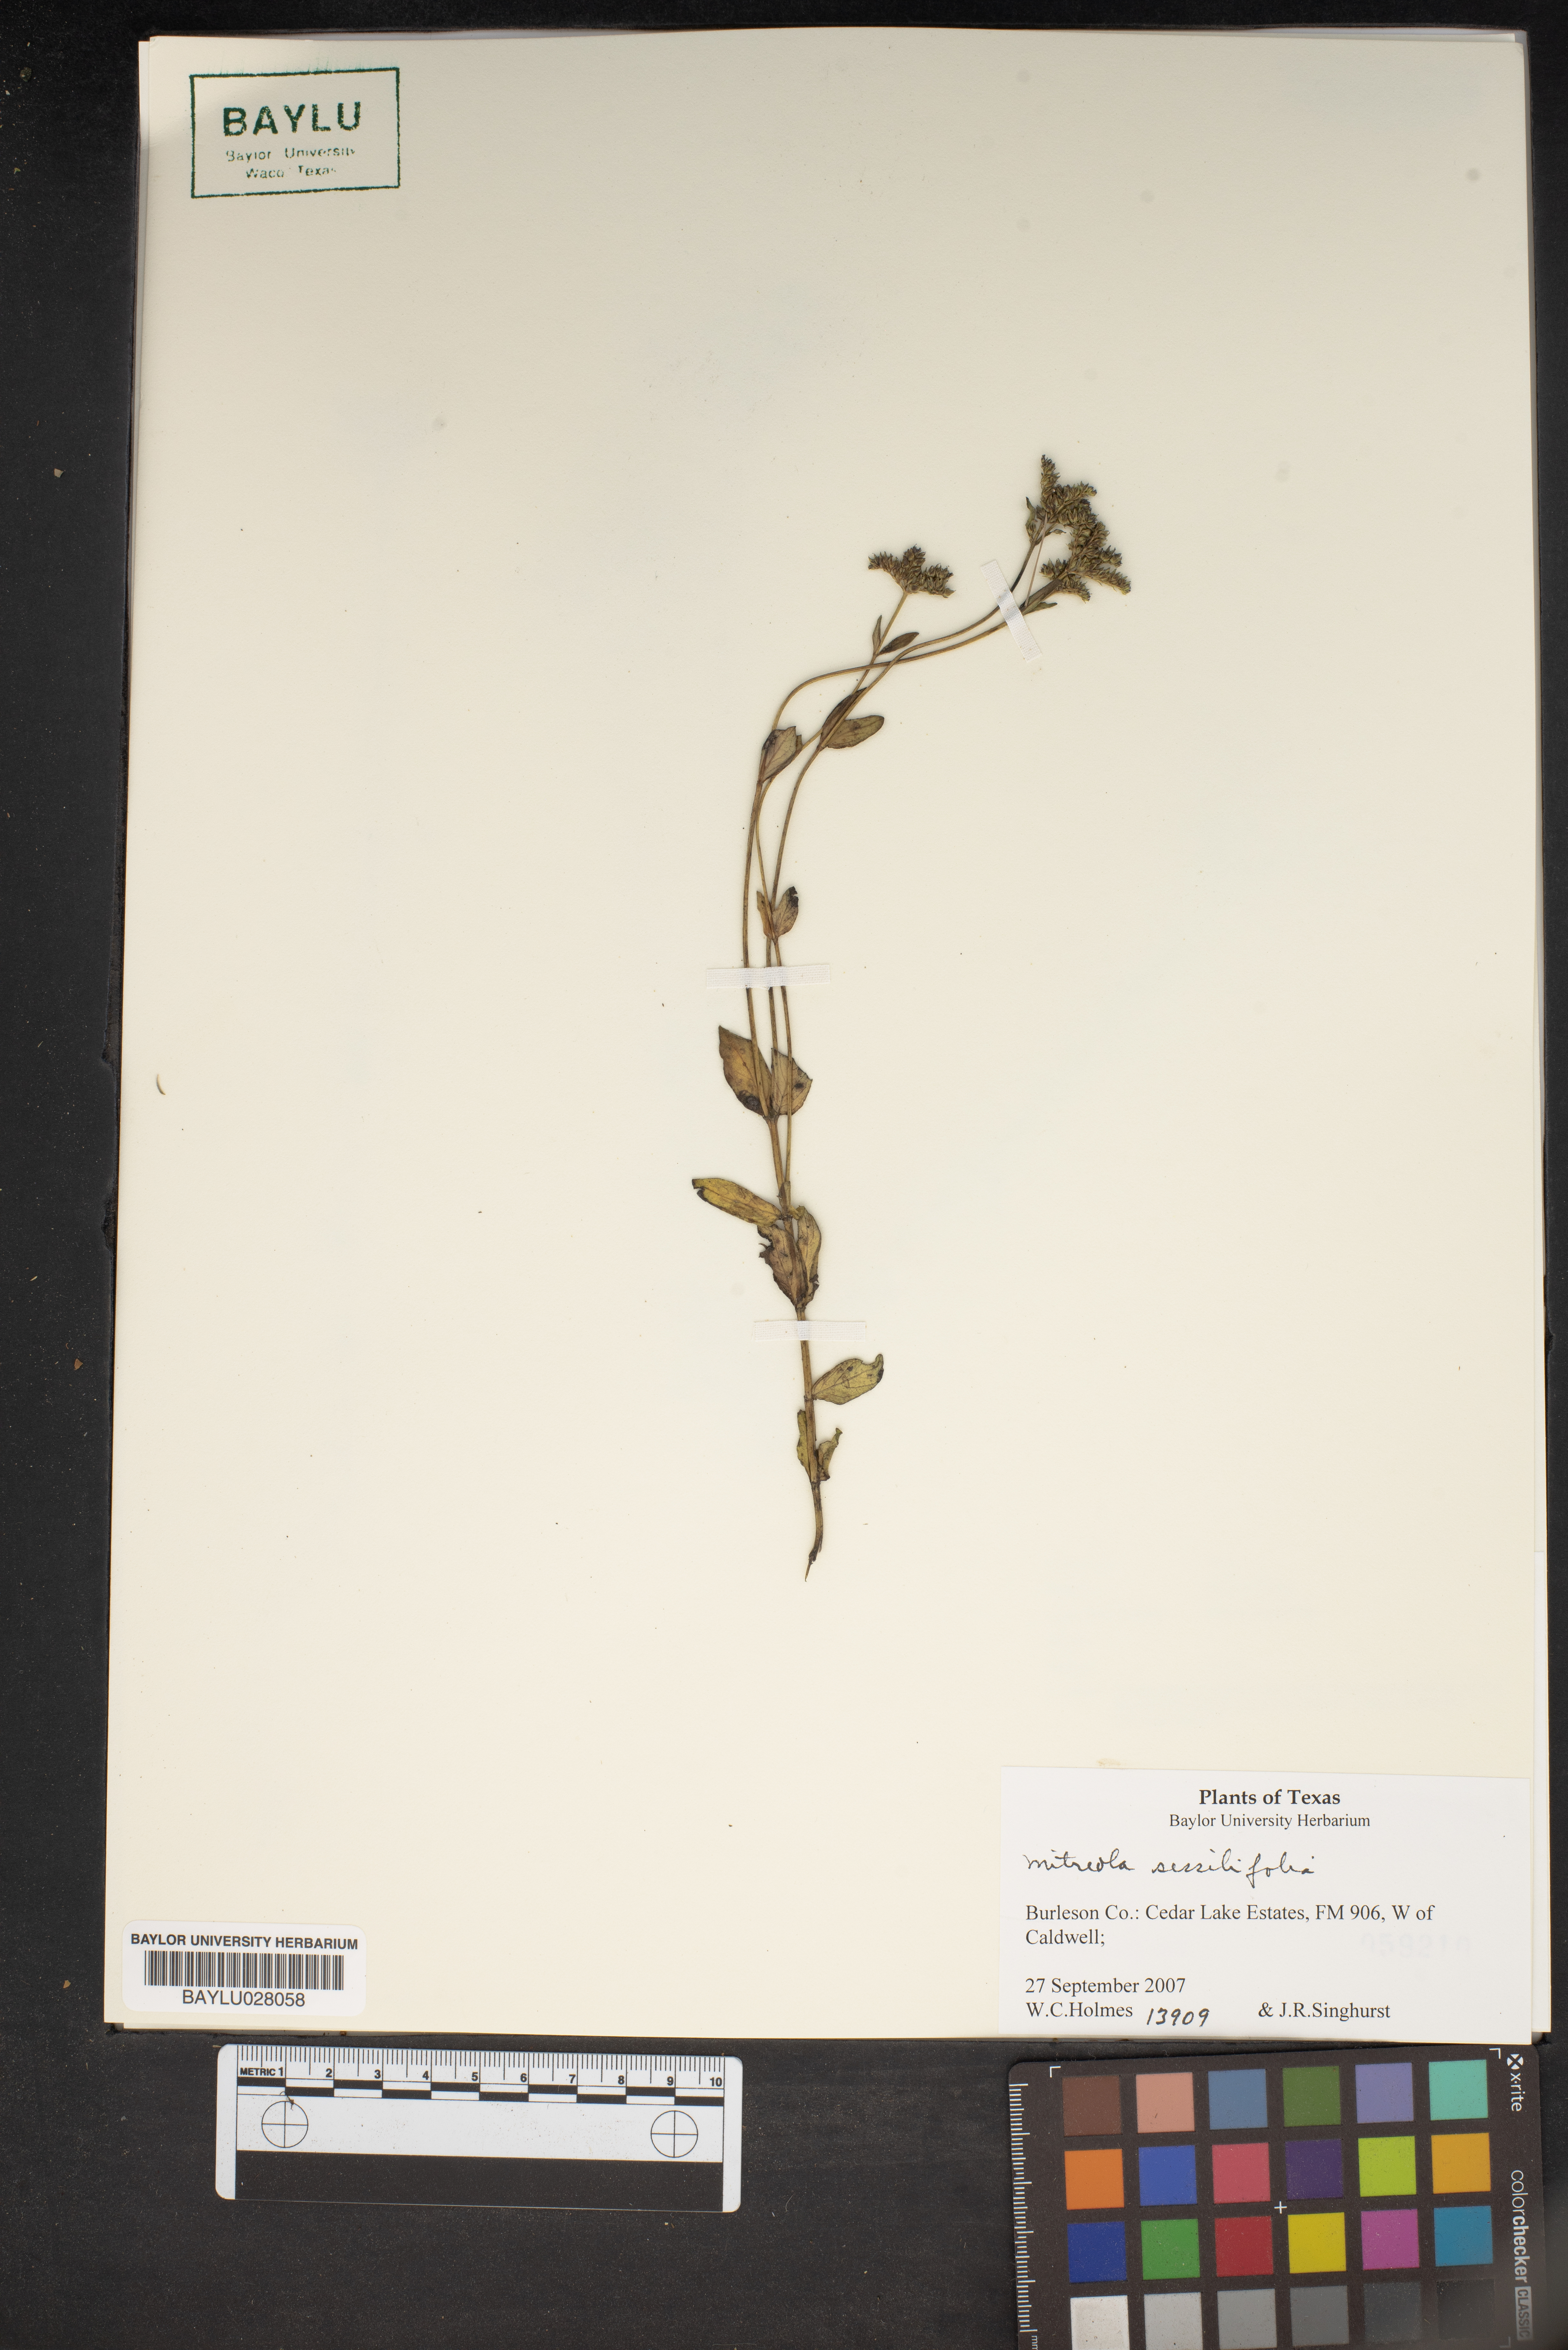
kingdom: Plantae
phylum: Tracheophyta
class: Magnoliopsida
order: Gentianales
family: Loganiaceae
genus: Mitreola
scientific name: Mitreola sessilifolia
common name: Swamp hornpod
